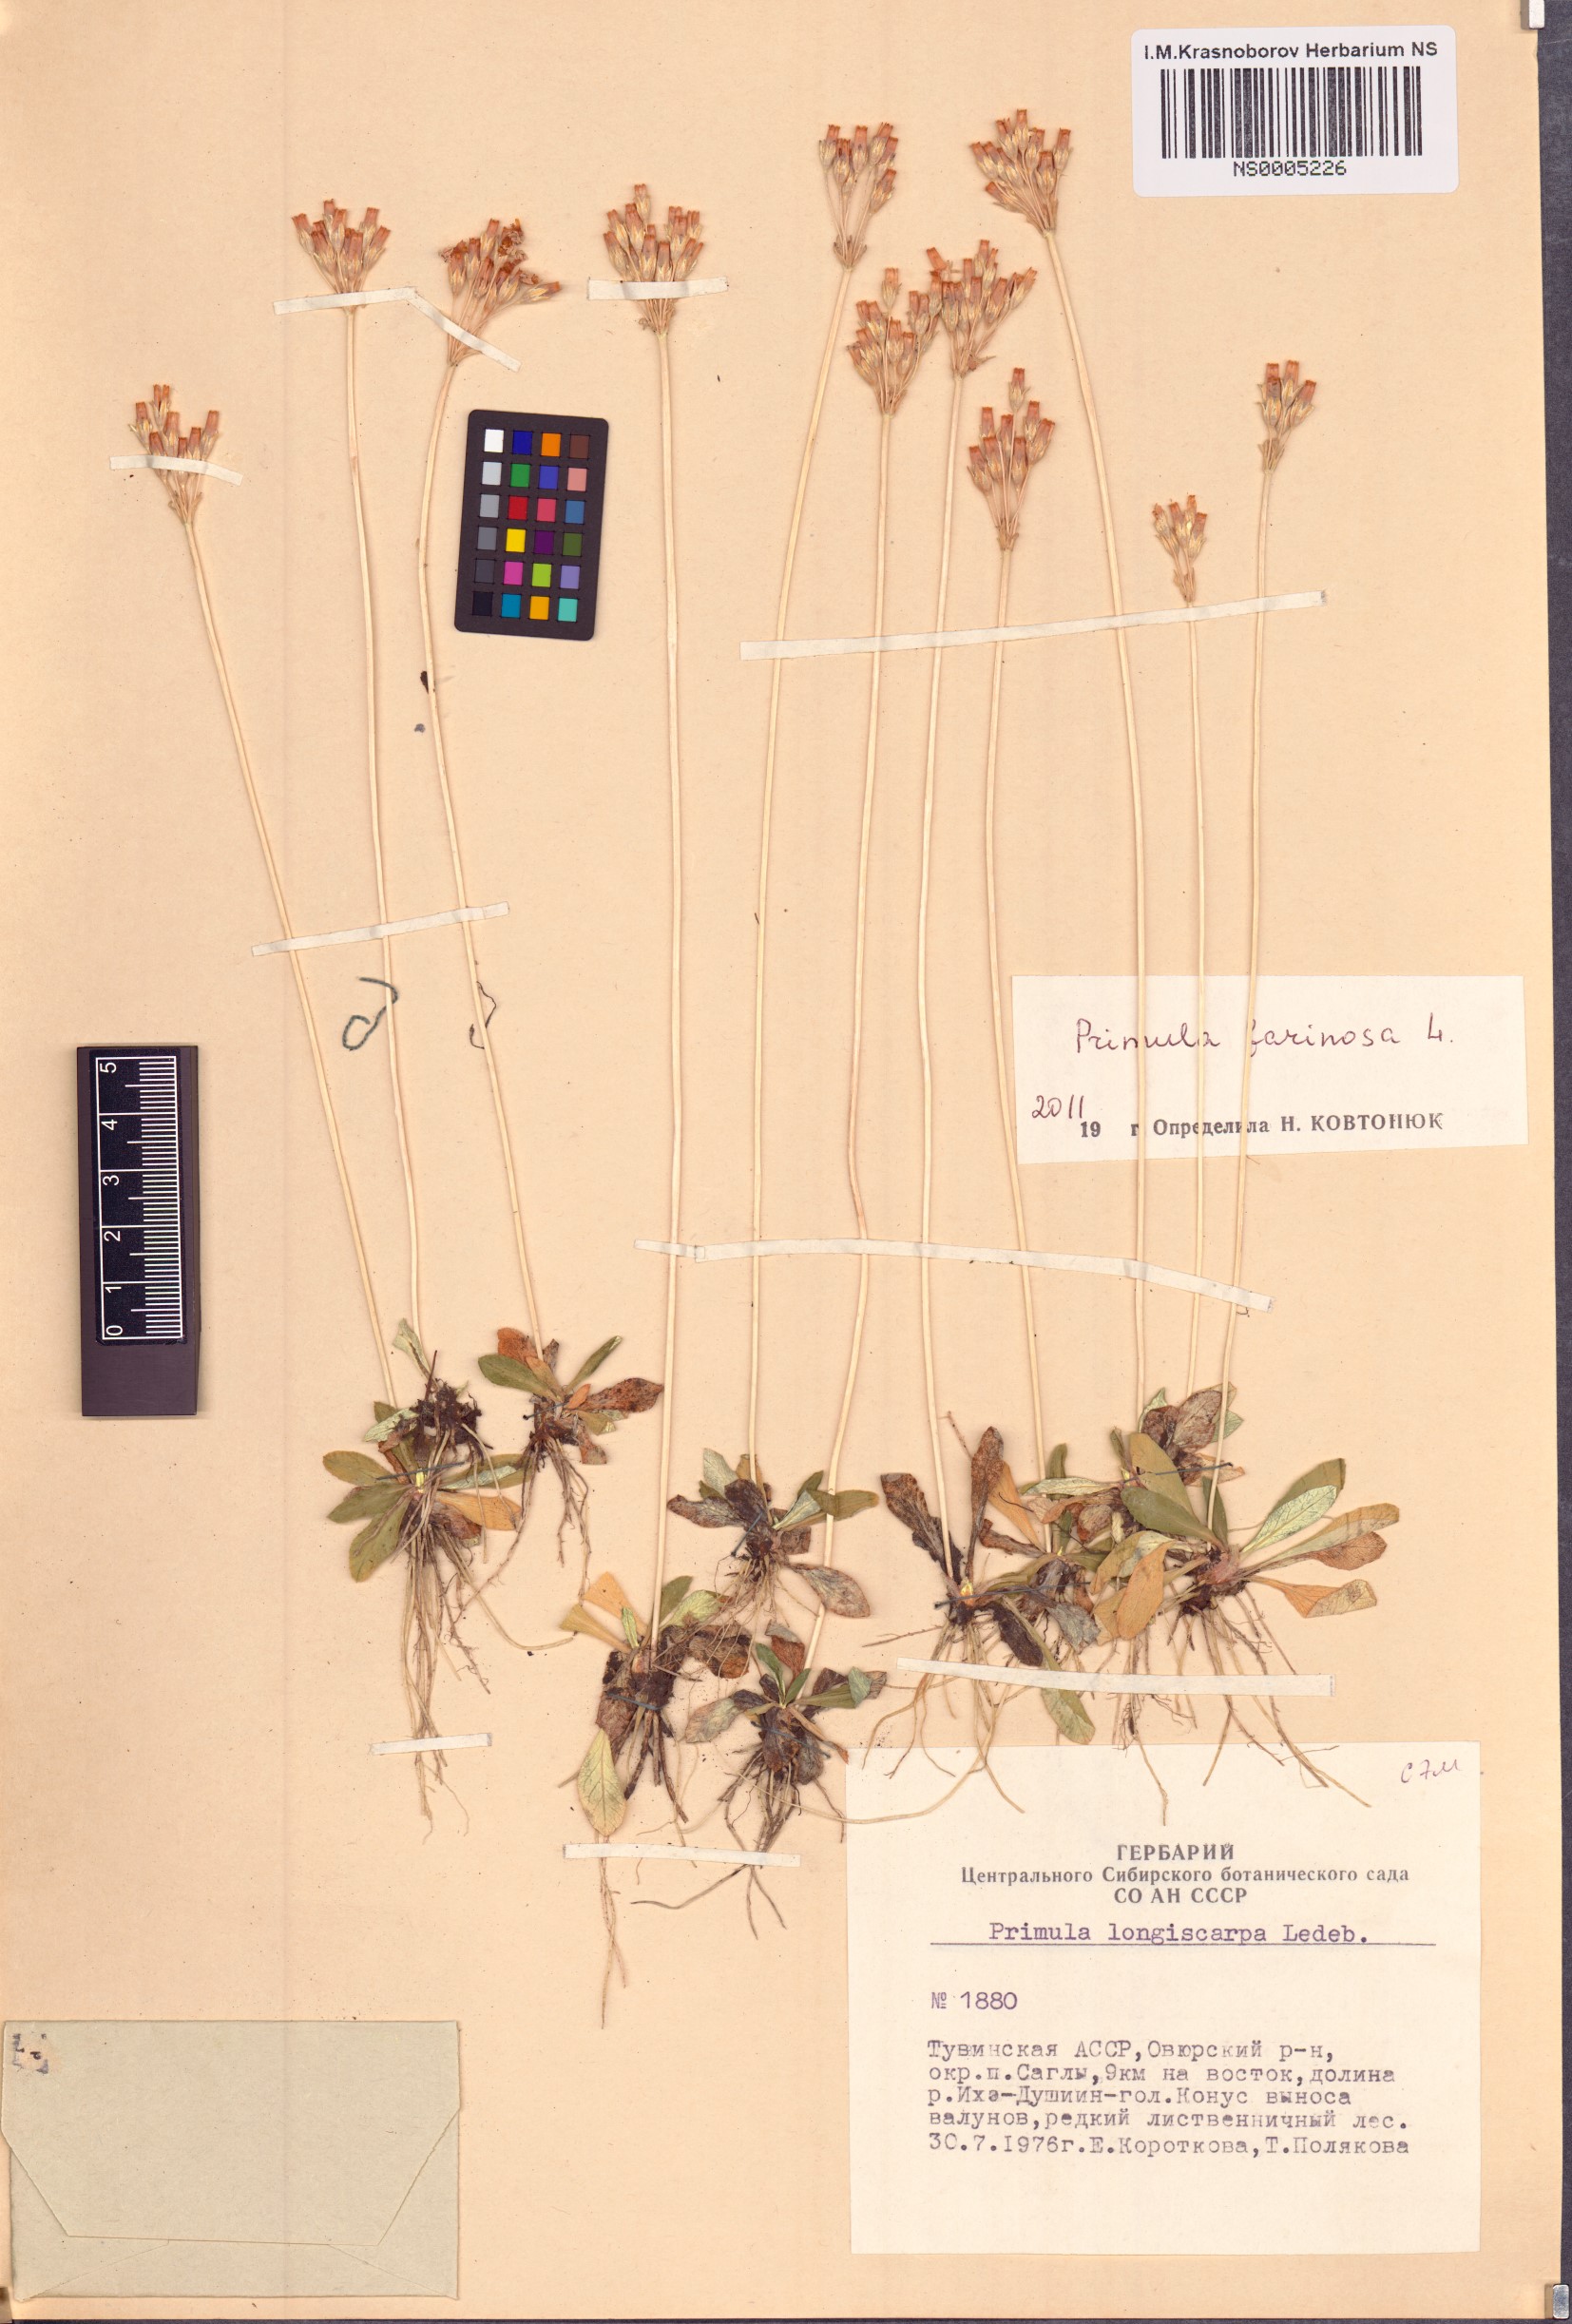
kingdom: Plantae
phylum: Tracheophyta
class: Magnoliopsida
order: Ericales
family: Primulaceae
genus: Primula
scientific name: Primula farinosa
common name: Bird's-eye primrose
